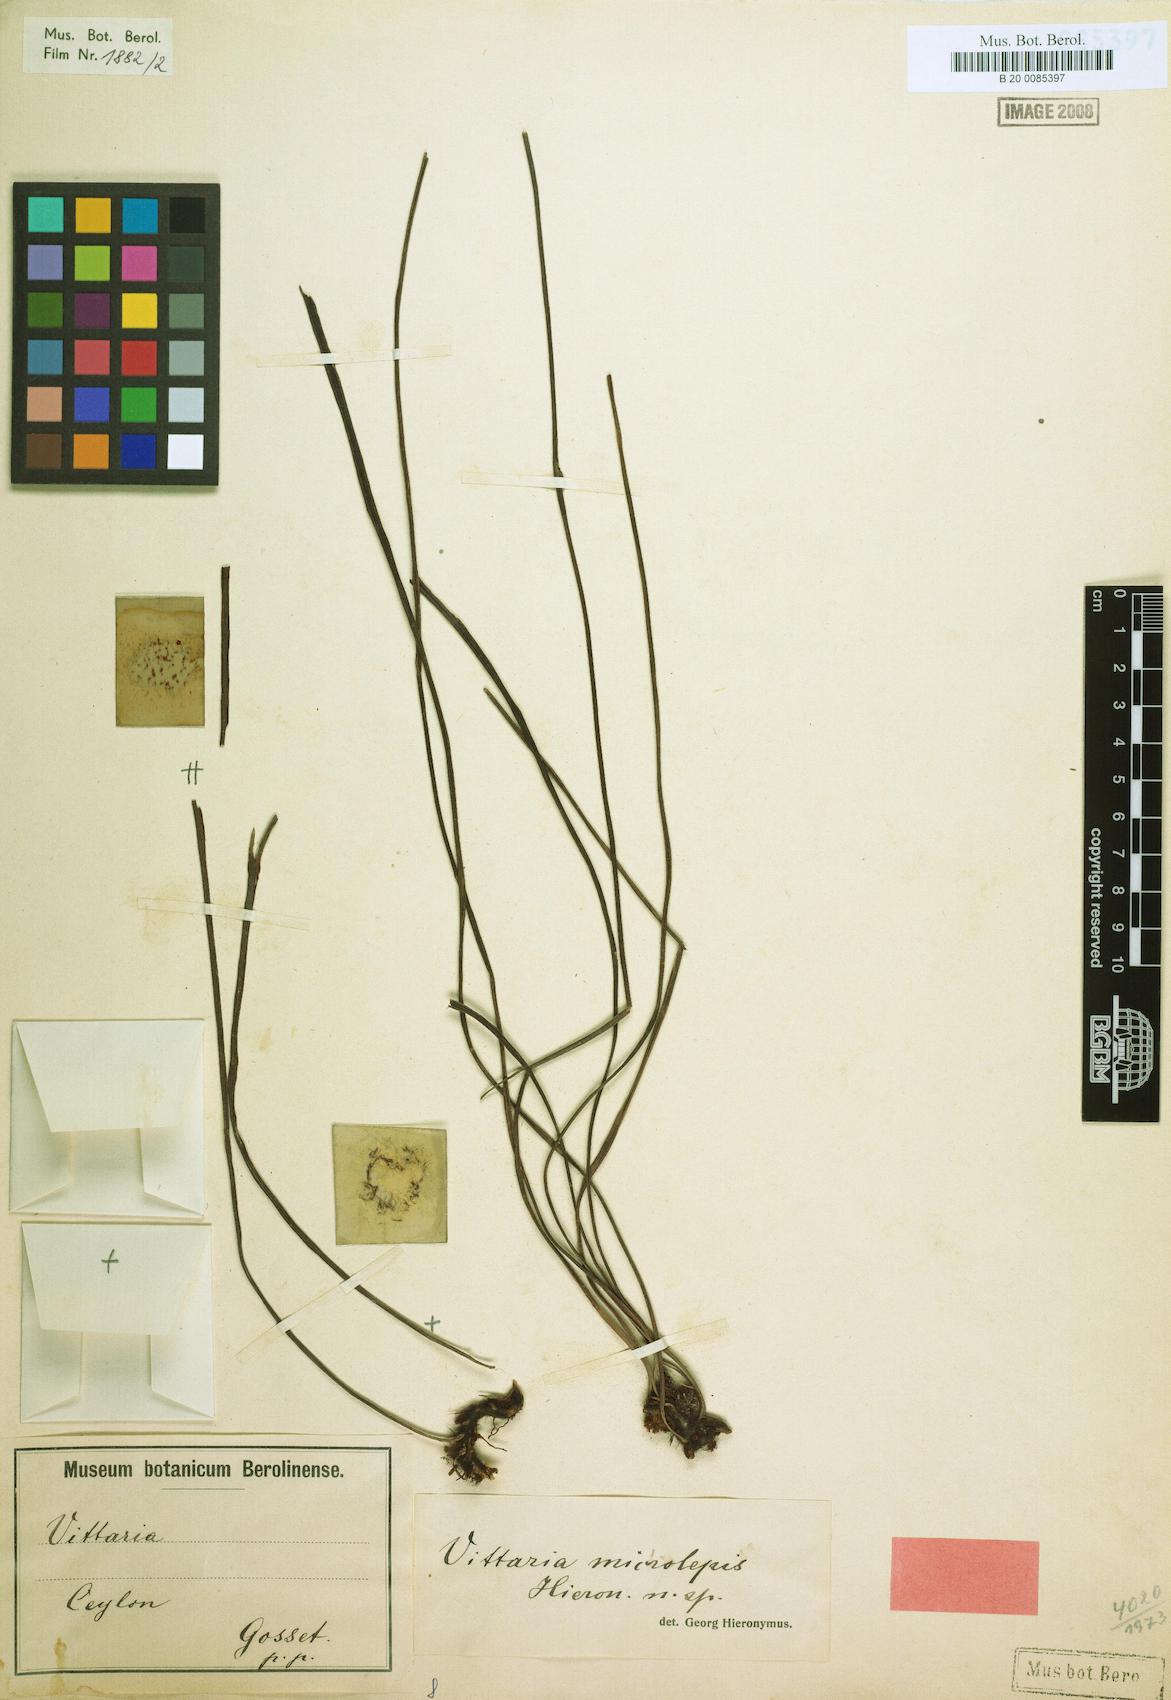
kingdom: Plantae
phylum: Tracheophyta
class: Polypodiopsida
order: Polypodiales
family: Pteridaceae
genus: Haplopteris
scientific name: Haplopteris elongata
